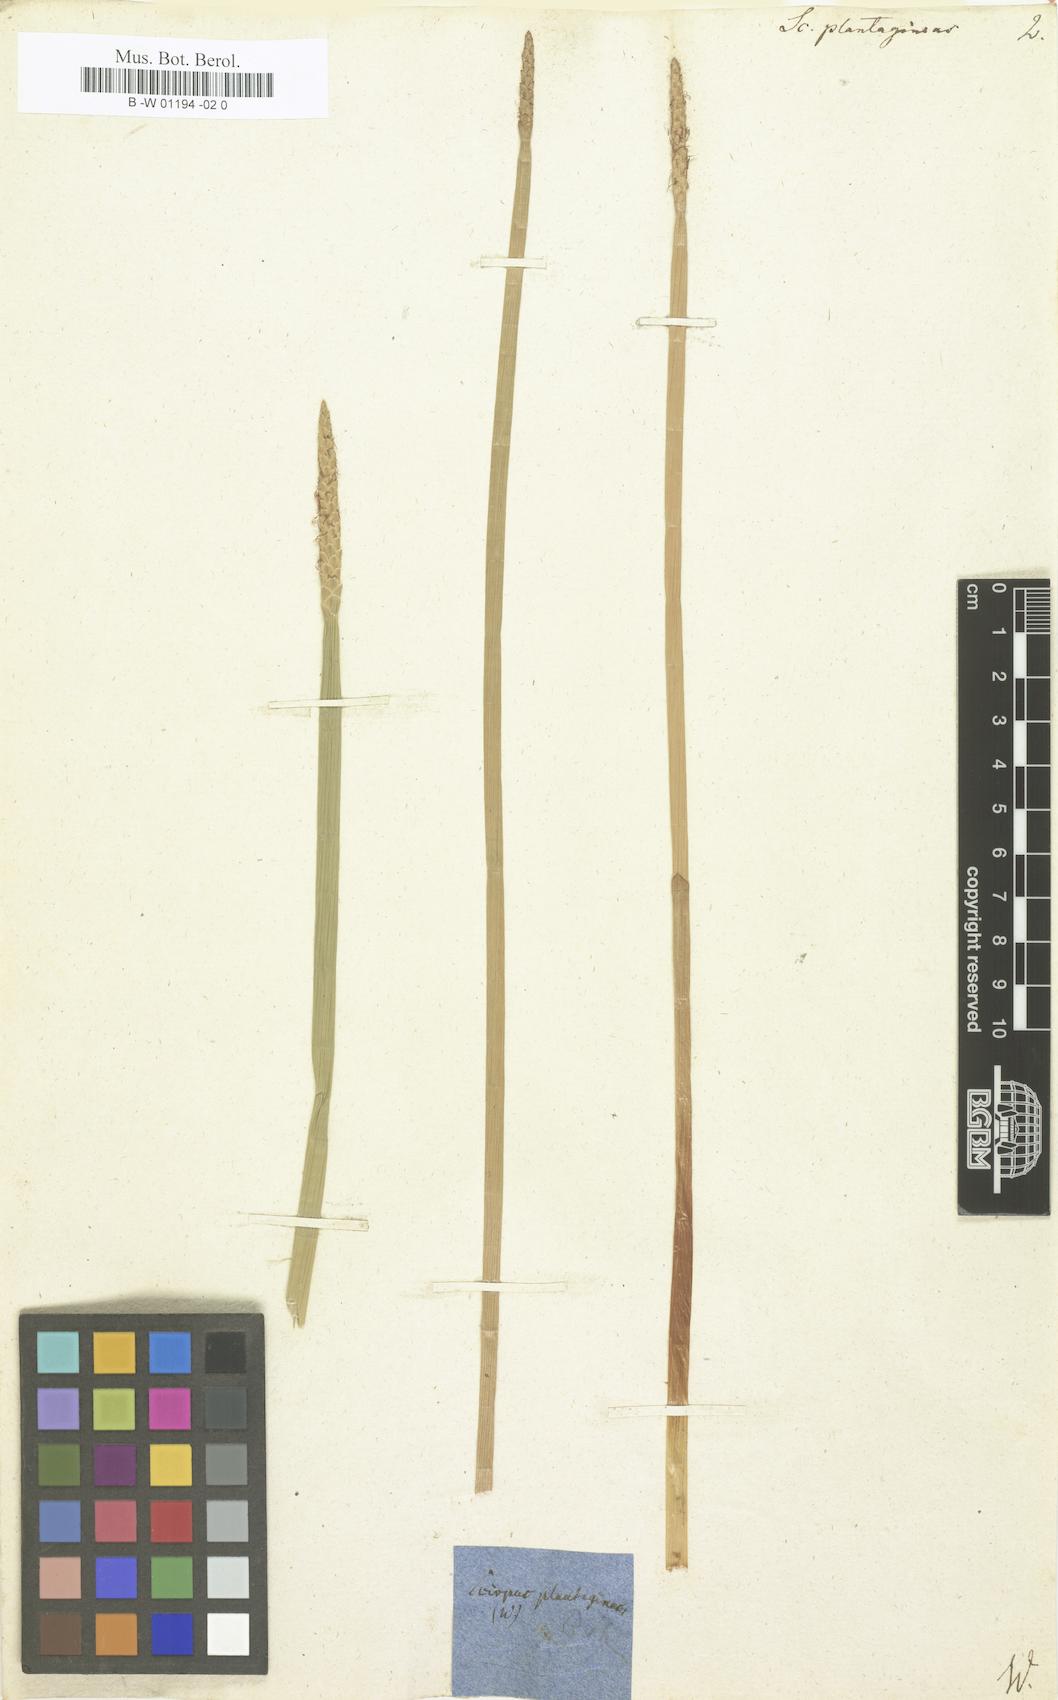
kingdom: Plantae
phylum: Tracheophyta
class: Liliopsida
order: Poales
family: Cyperaceae
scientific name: Cyperaceae
